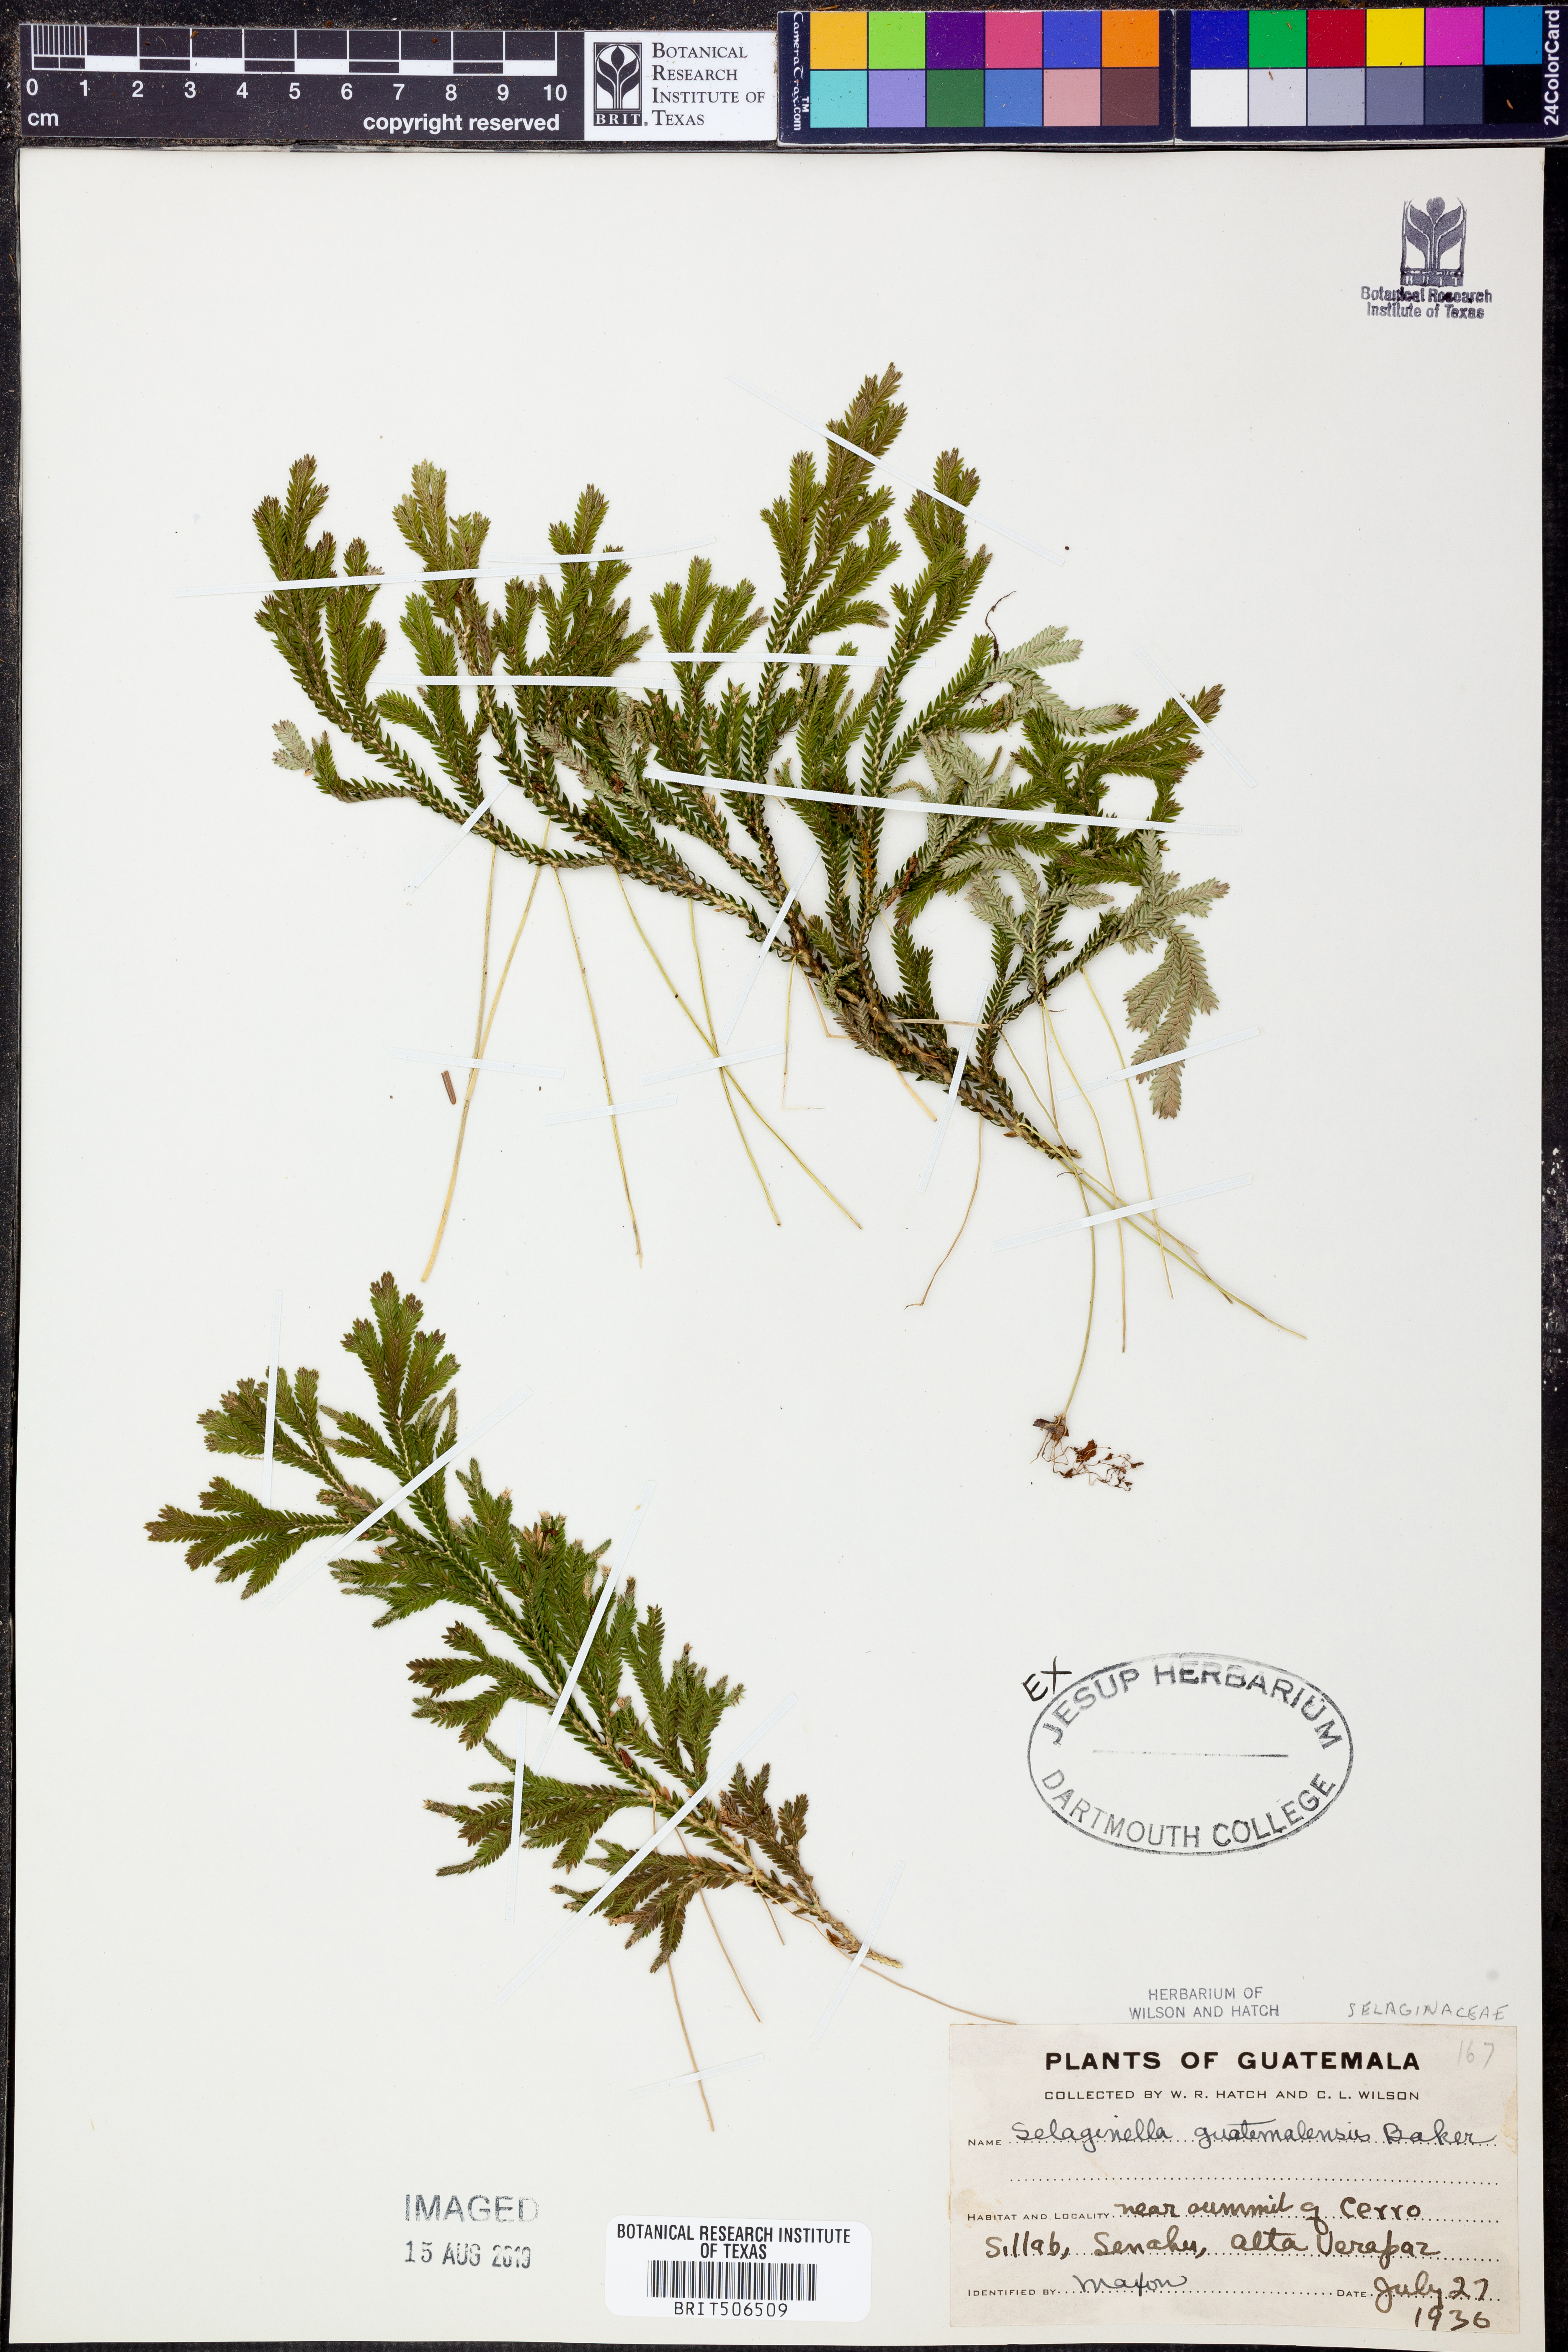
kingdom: Plantae
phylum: Tracheophyta
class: Lycopodiopsida
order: Selaginellales
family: Selaginellaceae
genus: Selaginella
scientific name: Selaginella guatemalensis
